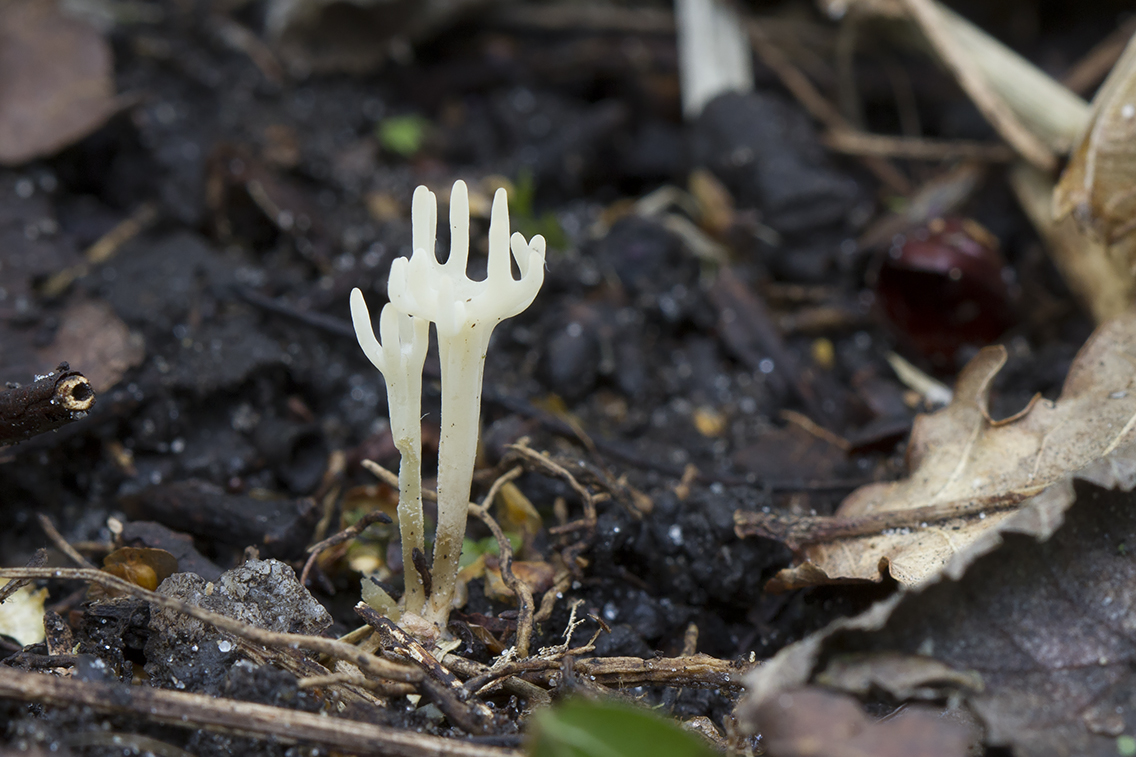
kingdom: Fungi
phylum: Basidiomycota
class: Agaricomycetes
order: Agaricales
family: Clavariaceae
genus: Ramariopsis
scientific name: Ramariopsis hirtipes
